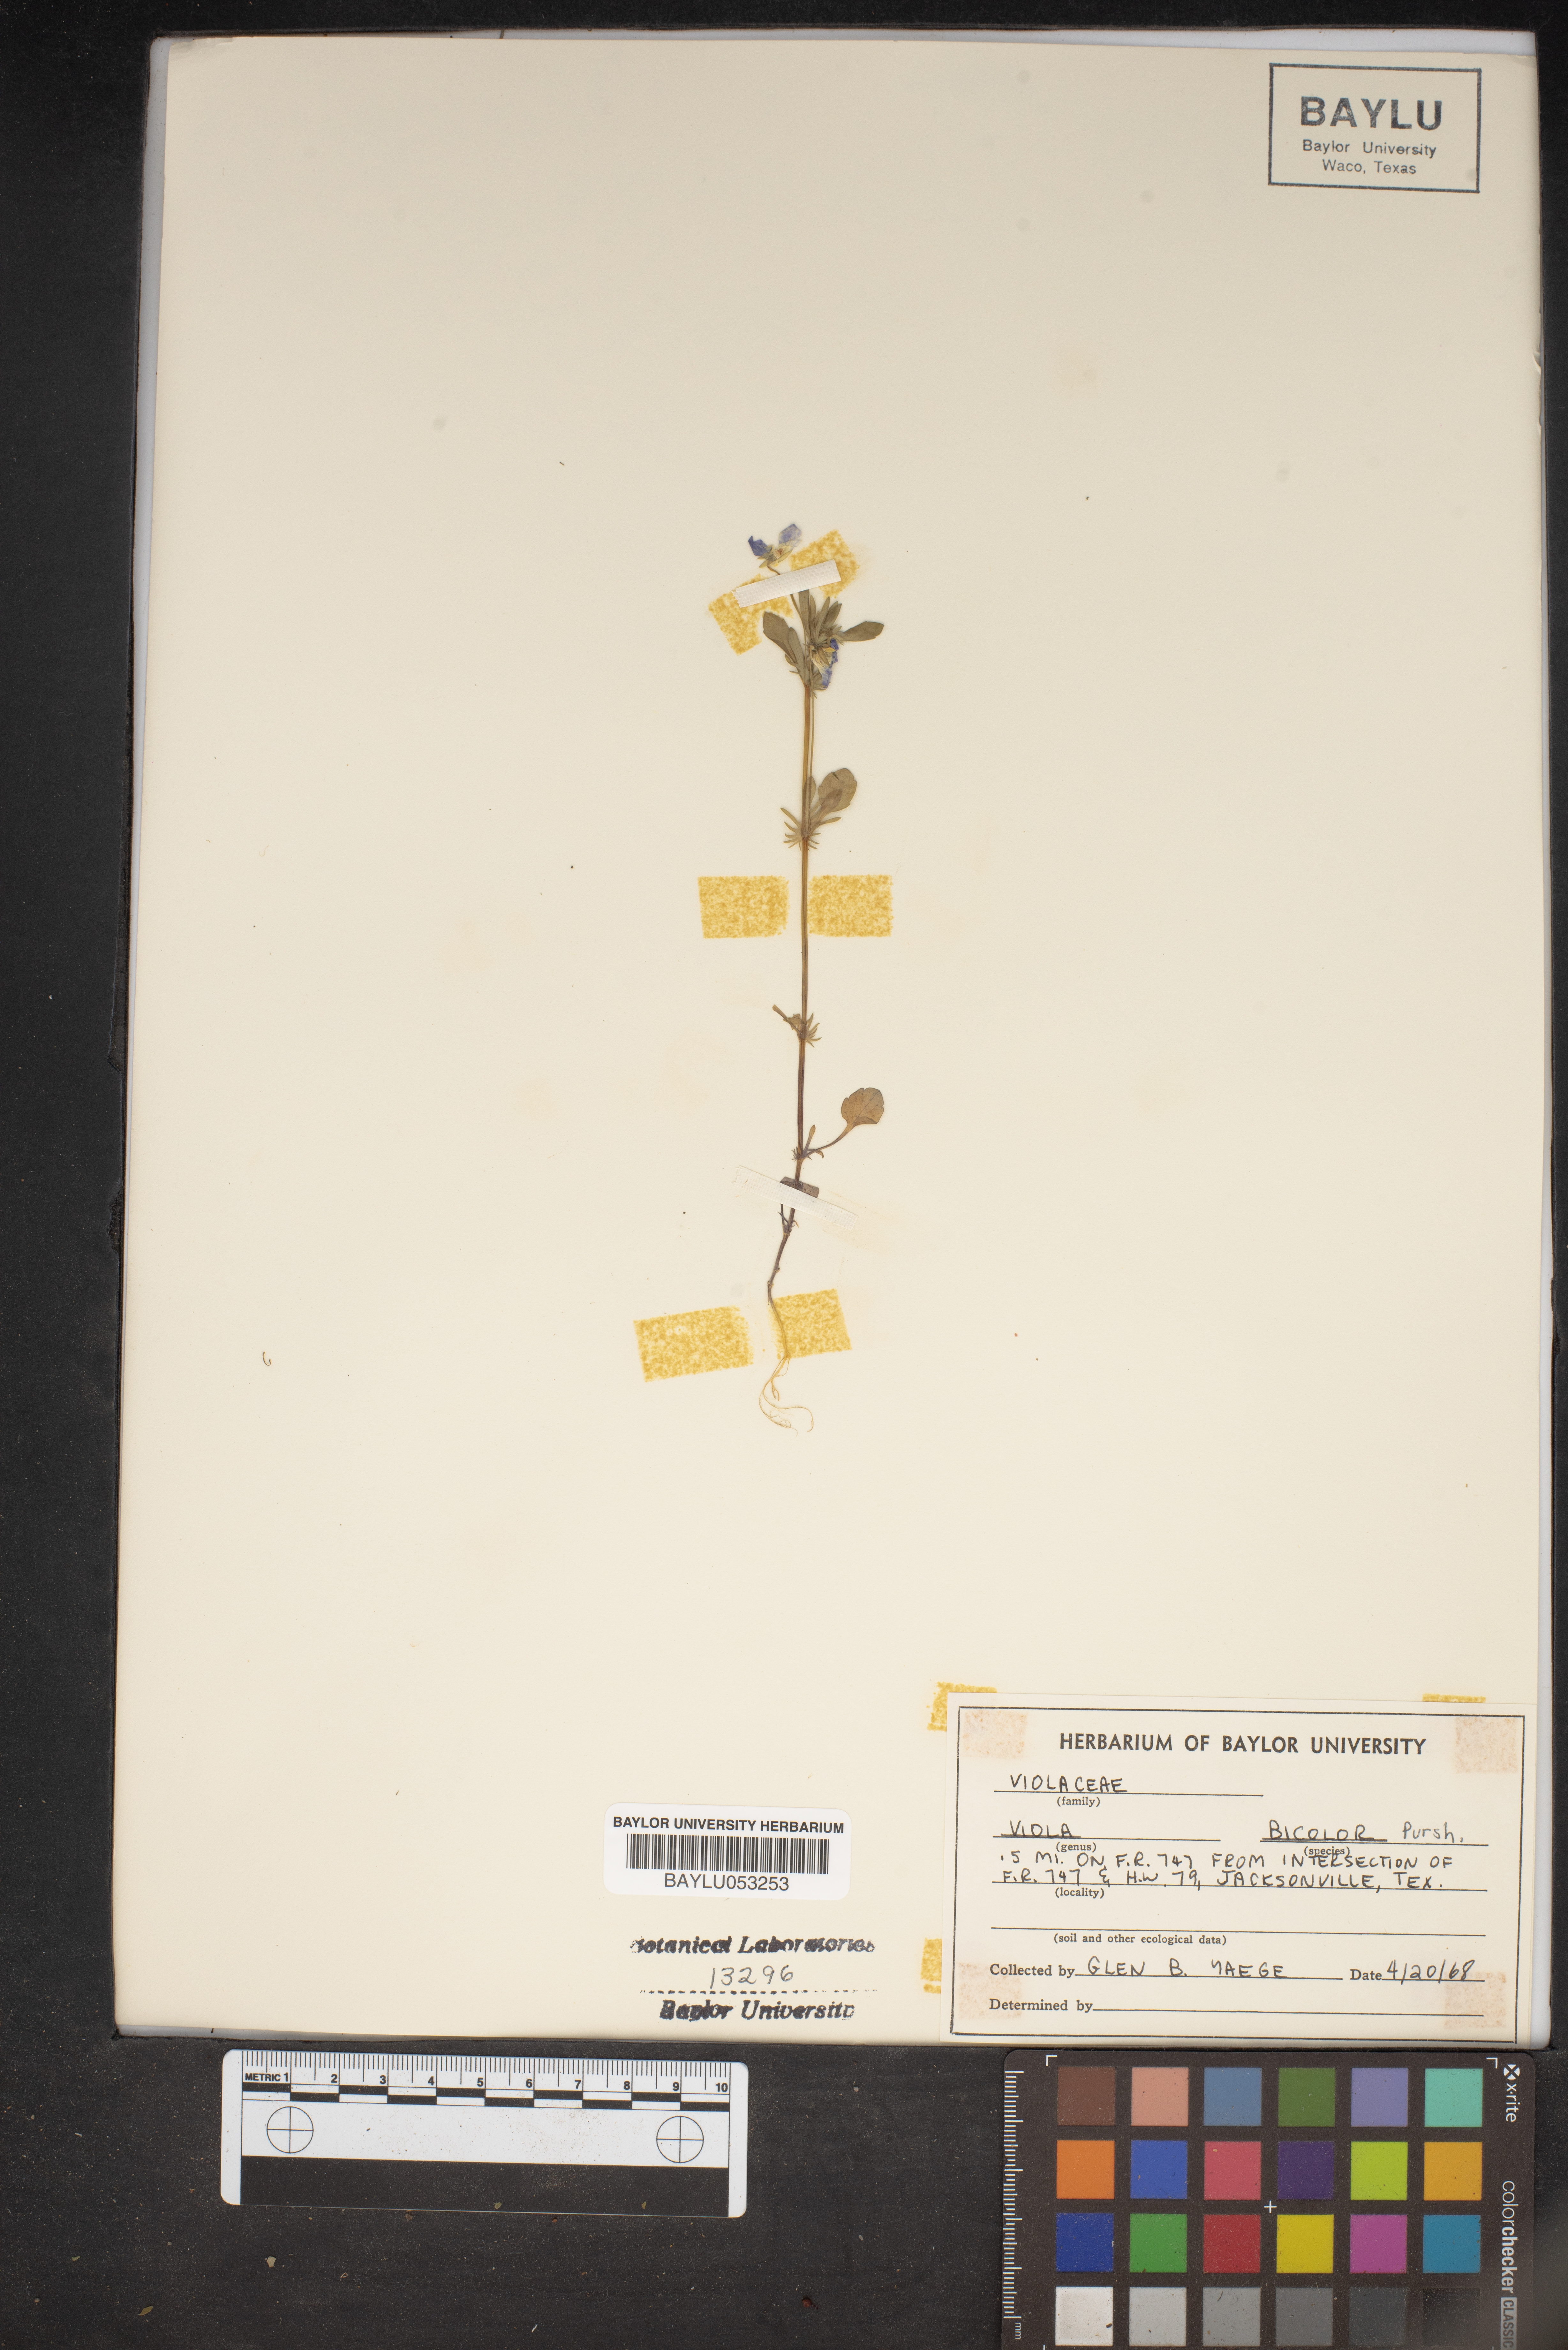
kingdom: Plantae
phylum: Tracheophyta
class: Magnoliopsida
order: Malpighiales
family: Violaceae
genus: Viola
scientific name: Viola rafinesquei
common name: American field pansy
